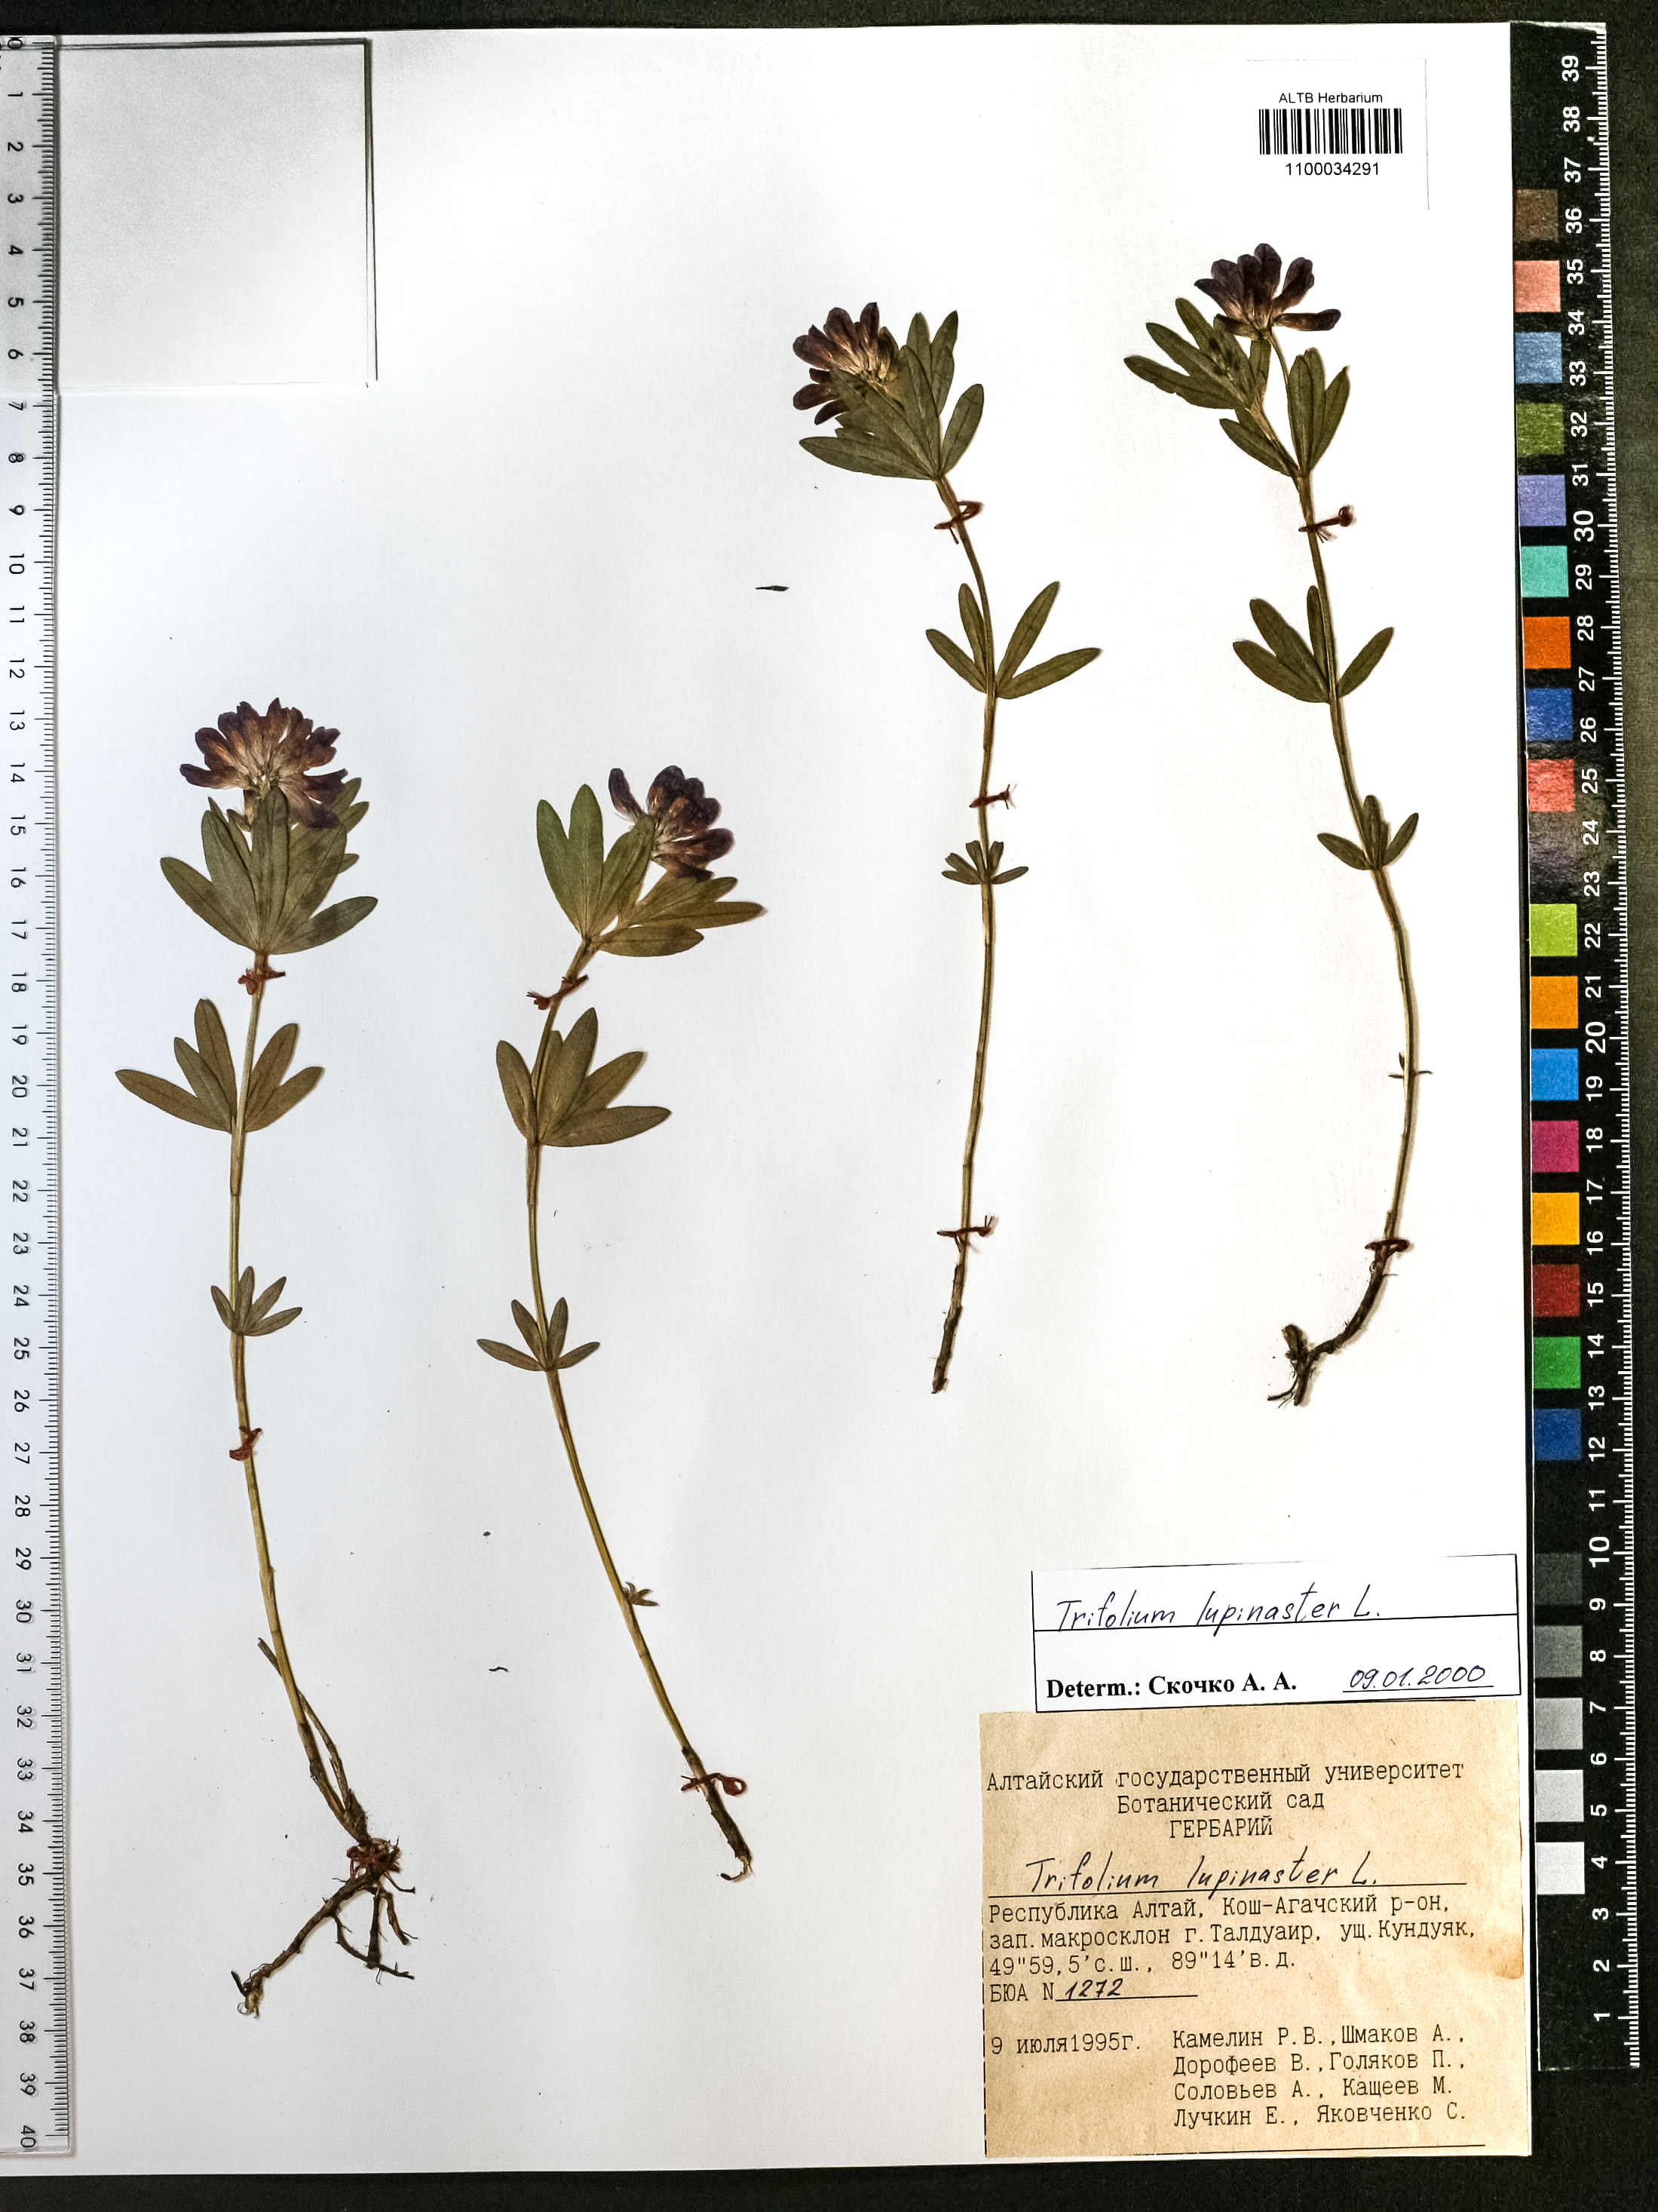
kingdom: Plantae
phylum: Tracheophyta
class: Magnoliopsida
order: Fabales
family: Fabaceae
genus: Trifolium
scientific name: Trifolium lupinaster
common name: Lupine clover
